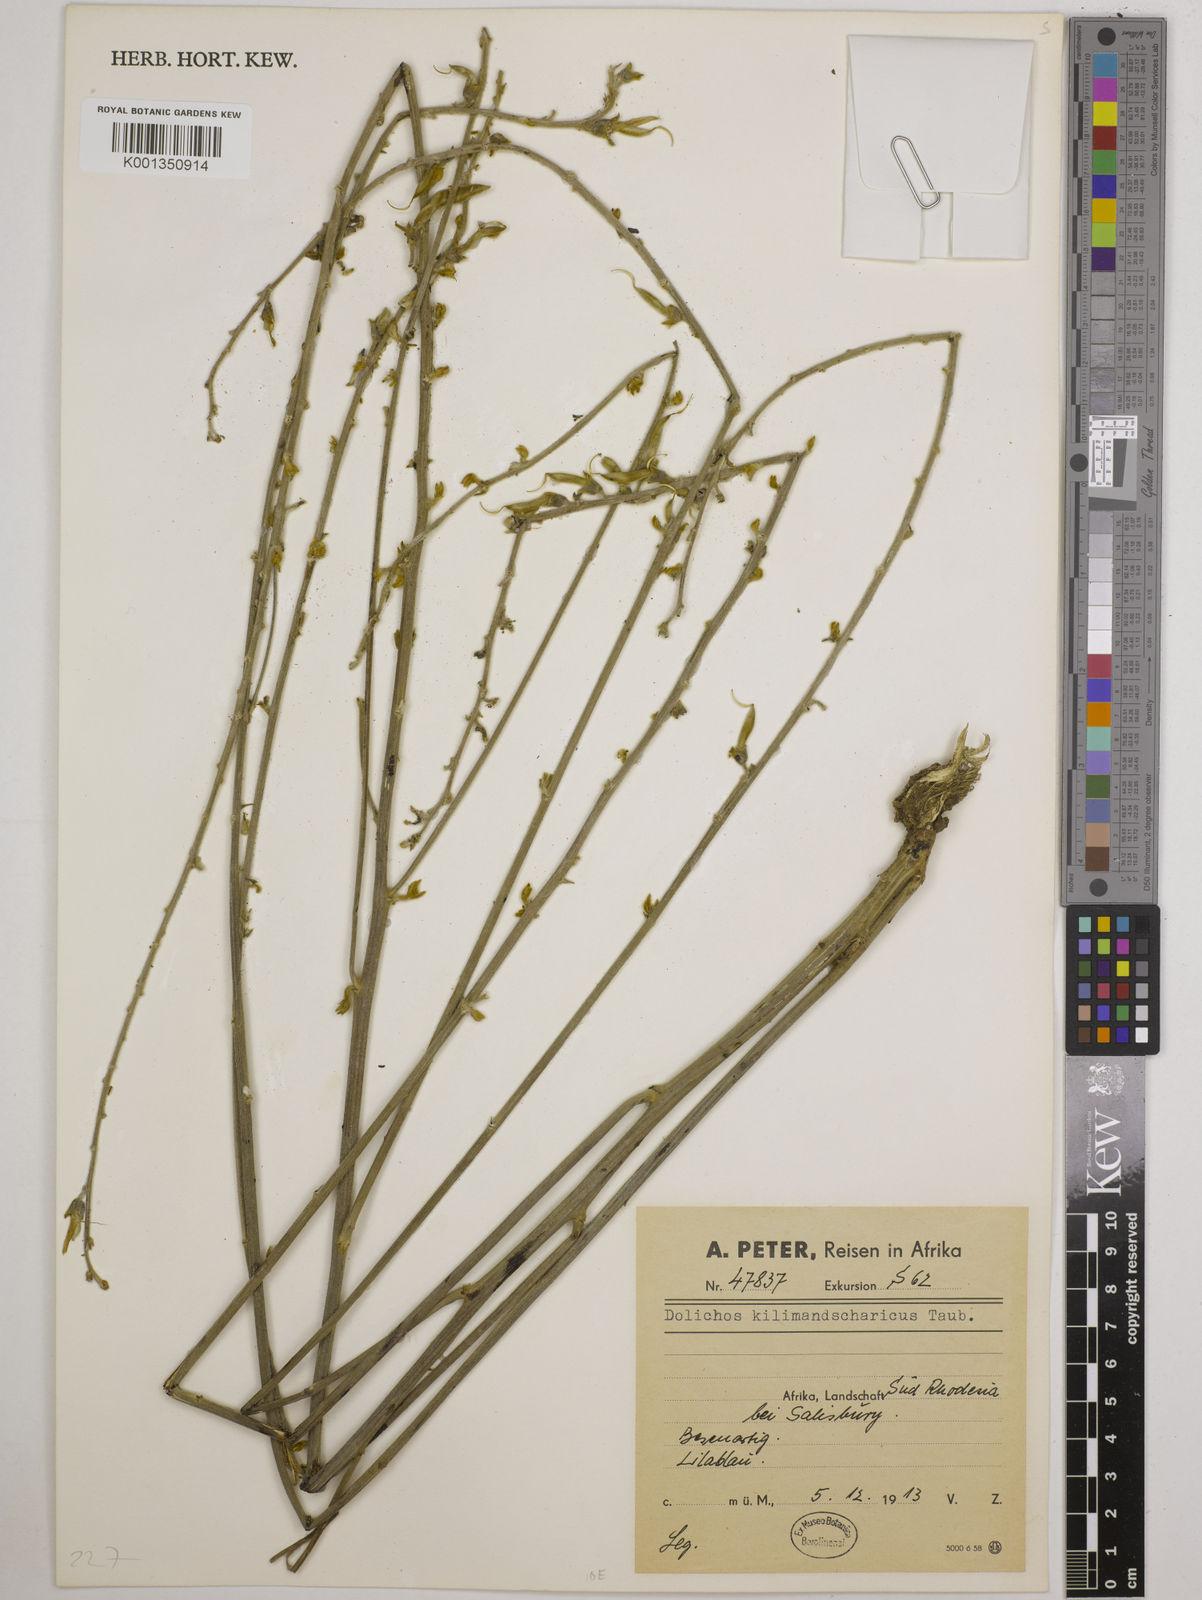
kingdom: Plantae
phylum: Tracheophyta
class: Magnoliopsida
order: Fabales
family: Fabaceae
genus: Dolichos
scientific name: Dolichos kilimandscharicus
